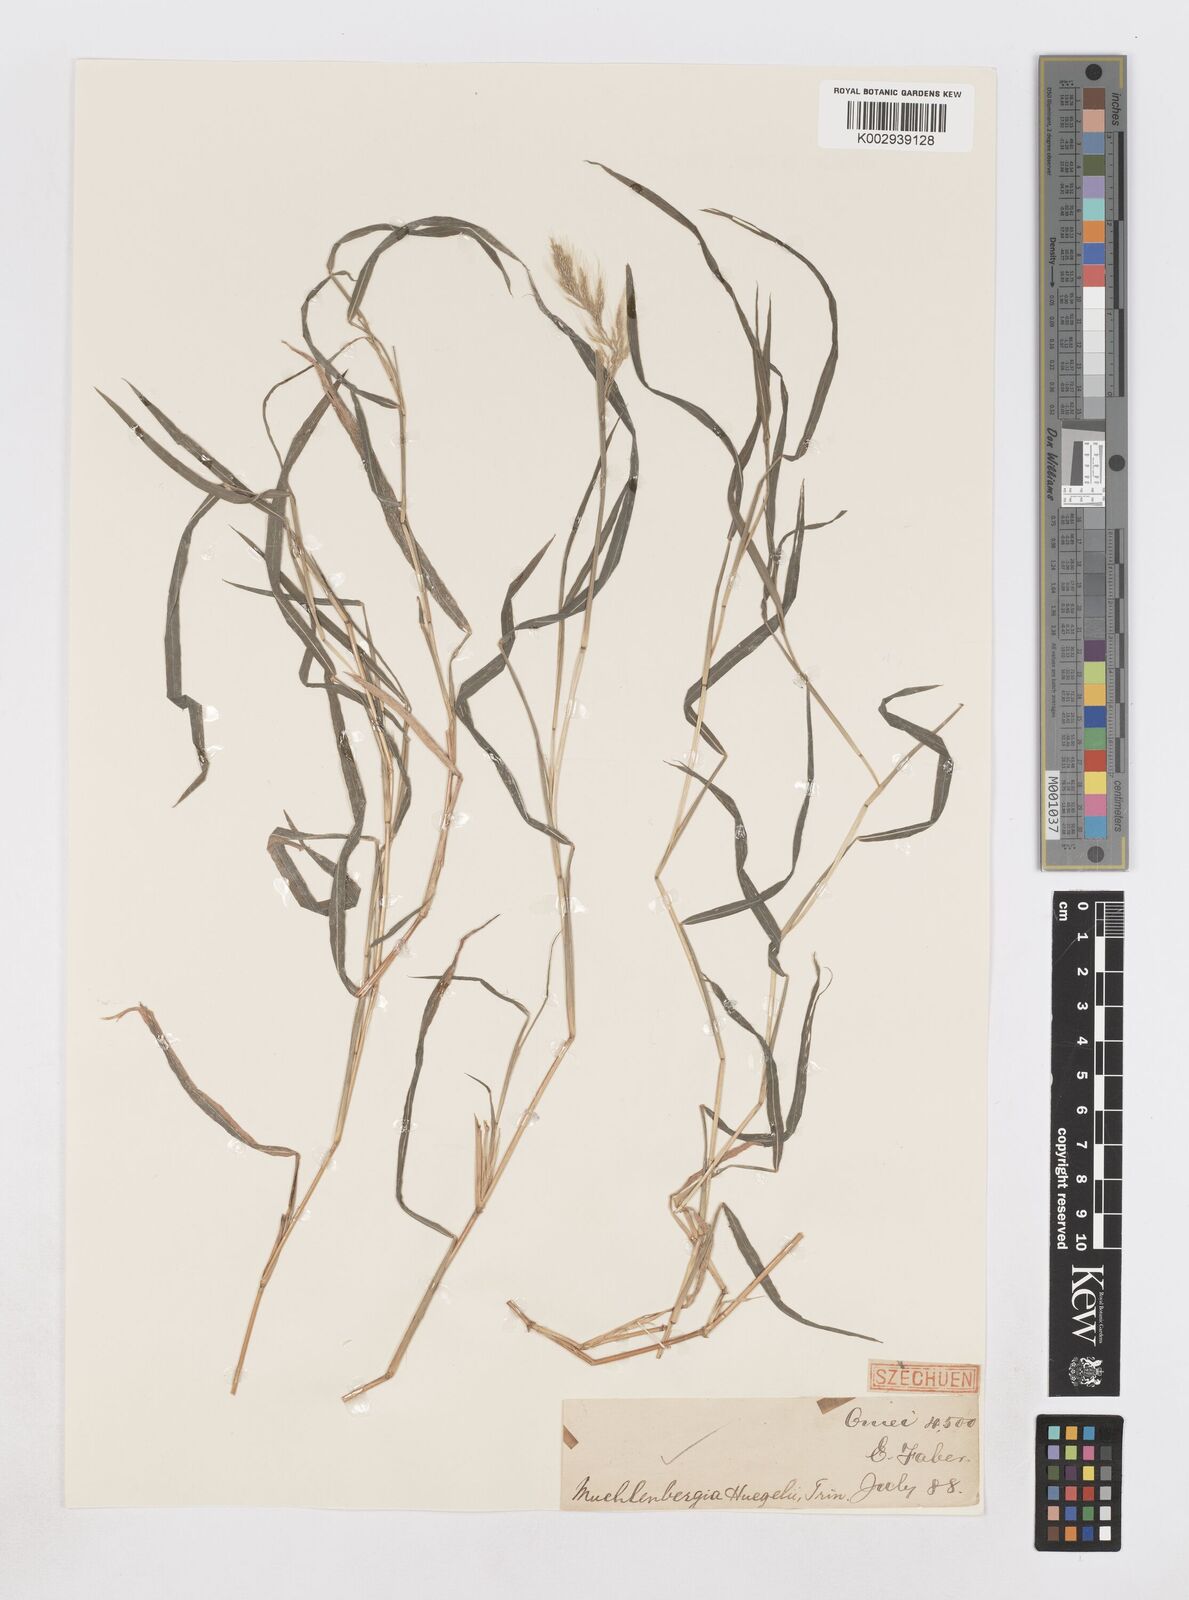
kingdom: Plantae
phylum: Tracheophyta
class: Liliopsida
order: Poales
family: Poaceae
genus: Muhlenbergia
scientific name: Muhlenbergia japonica
